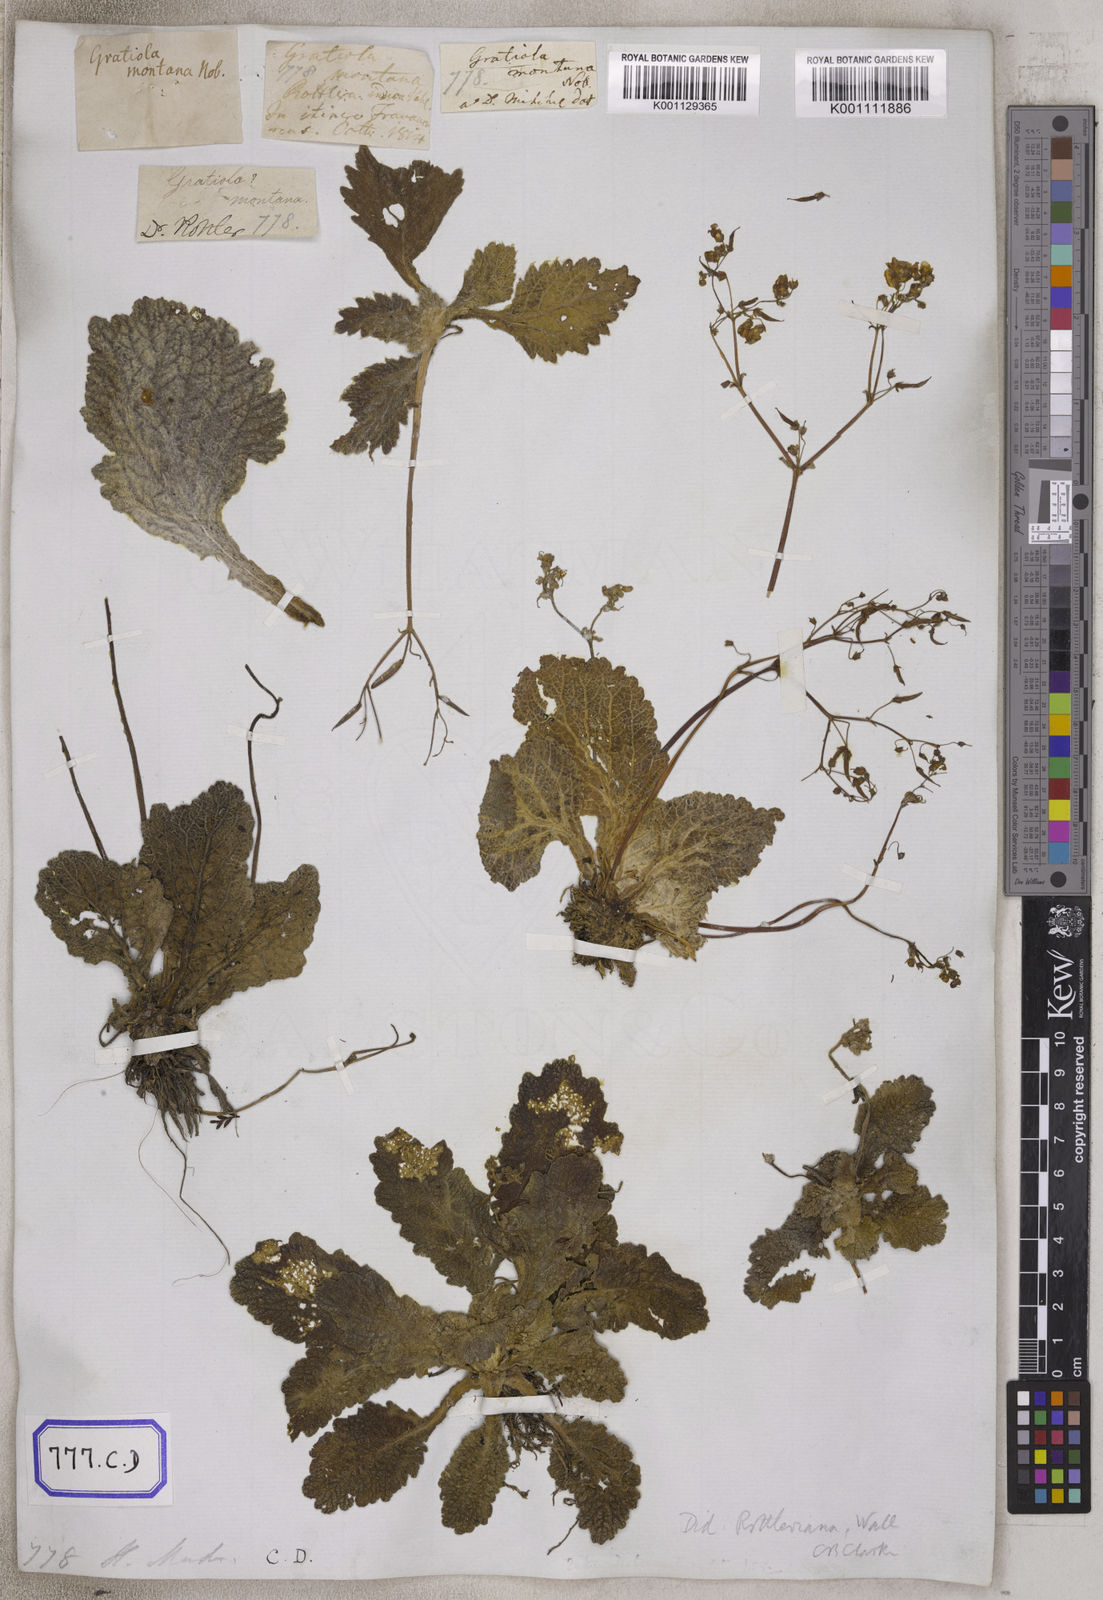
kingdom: Plantae
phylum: Tracheophyta
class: Magnoliopsida
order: Lamiales
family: Gesneriaceae
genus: Didymocarpus
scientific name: Didymocarpus
